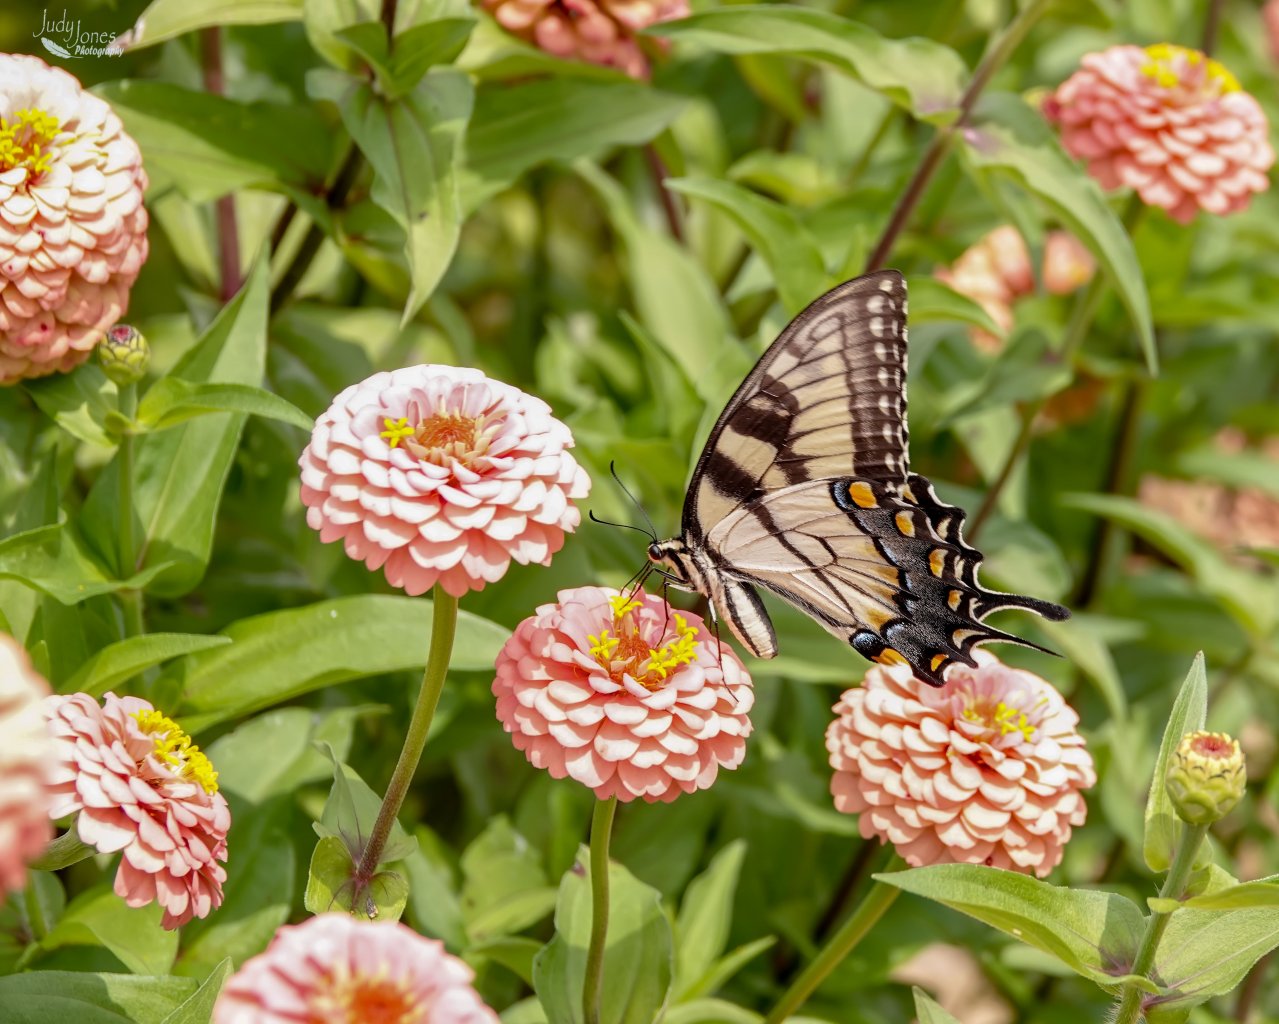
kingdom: Animalia
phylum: Arthropoda
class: Insecta
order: Lepidoptera
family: Papilionidae
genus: Pterourus
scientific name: Pterourus glaucus
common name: Eastern Tiger Swallowtail
